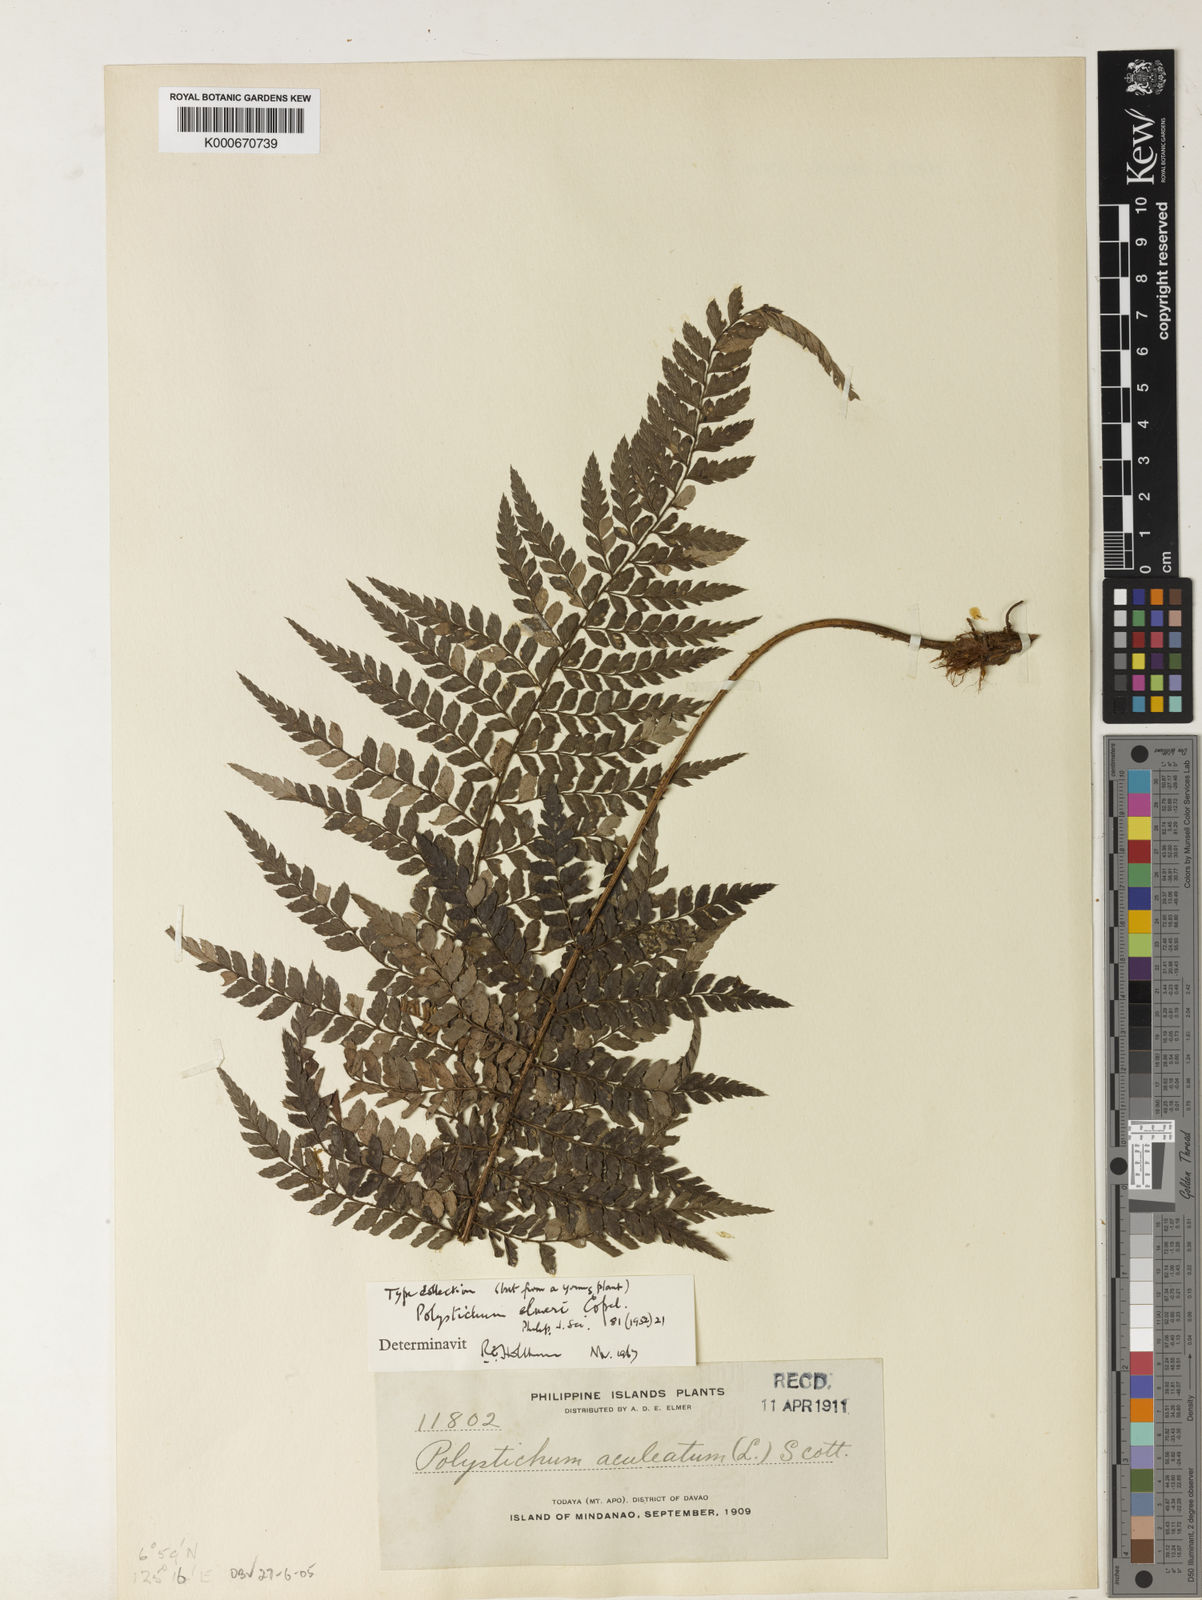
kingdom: Plantae
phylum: Tracheophyta
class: Polypodiopsida
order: Polypodiales
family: Dryopteridaceae
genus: Polystichum
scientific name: Polystichum elmeri
